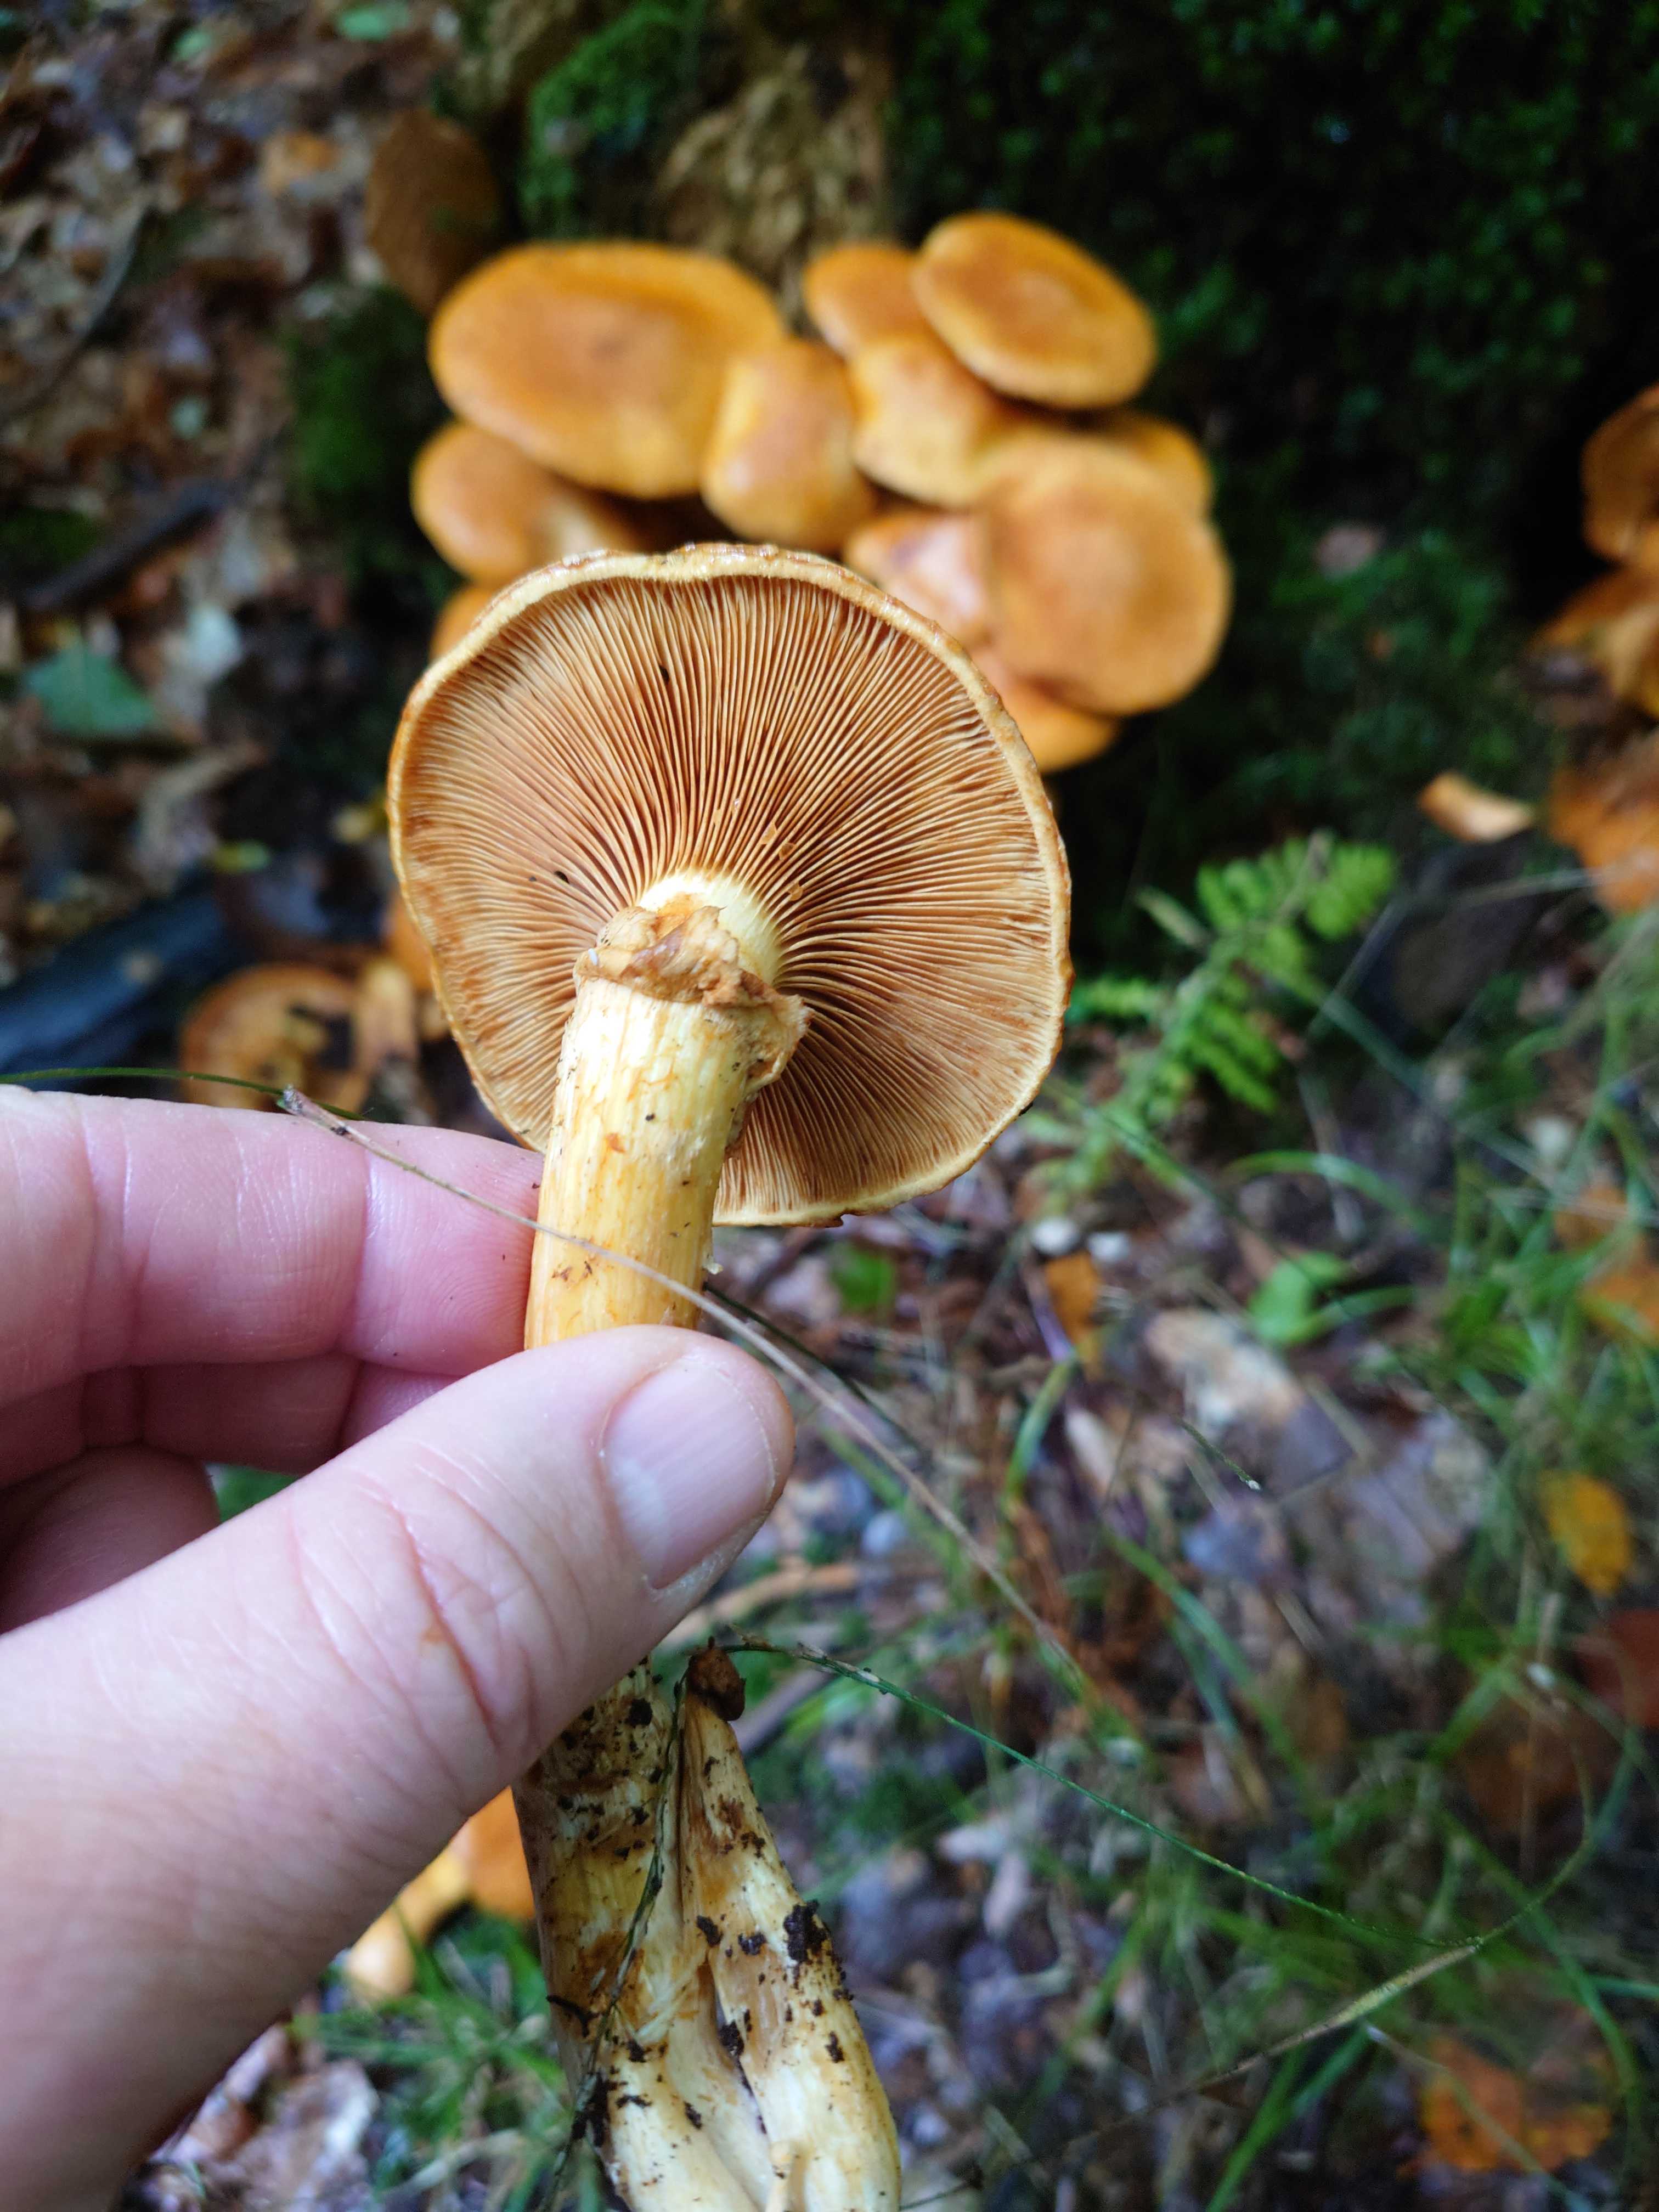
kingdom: Fungi
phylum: Basidiomycota
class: Agaricomycetes
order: Agaricales
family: Hymenogastraceae
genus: Gymnopilus
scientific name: Gymnopilus spectabilis
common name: fibret flammehat
